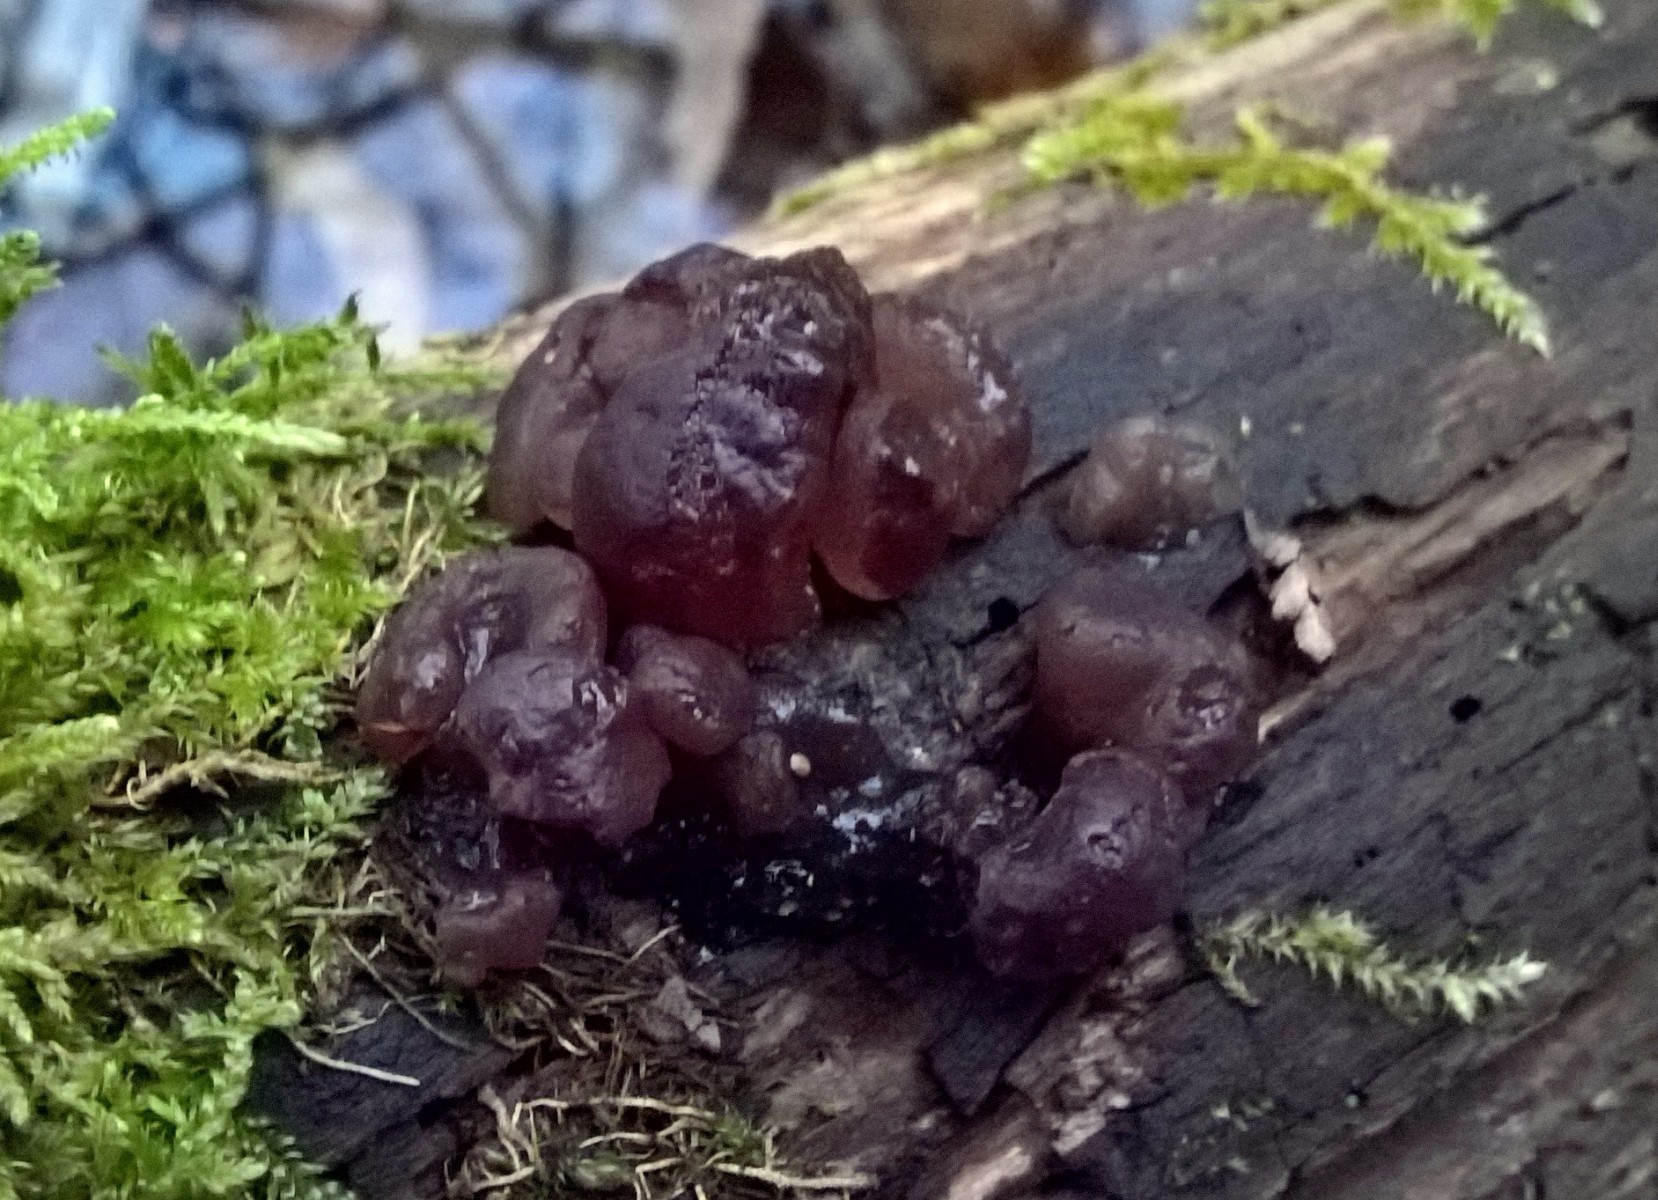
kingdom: Fungi
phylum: Ascomycota
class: Leotiomycetes
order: Helotiales
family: Gelatinodiscaceae
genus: Ascotremella
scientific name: Ascotremella faginea
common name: hjerne-bævreskive
